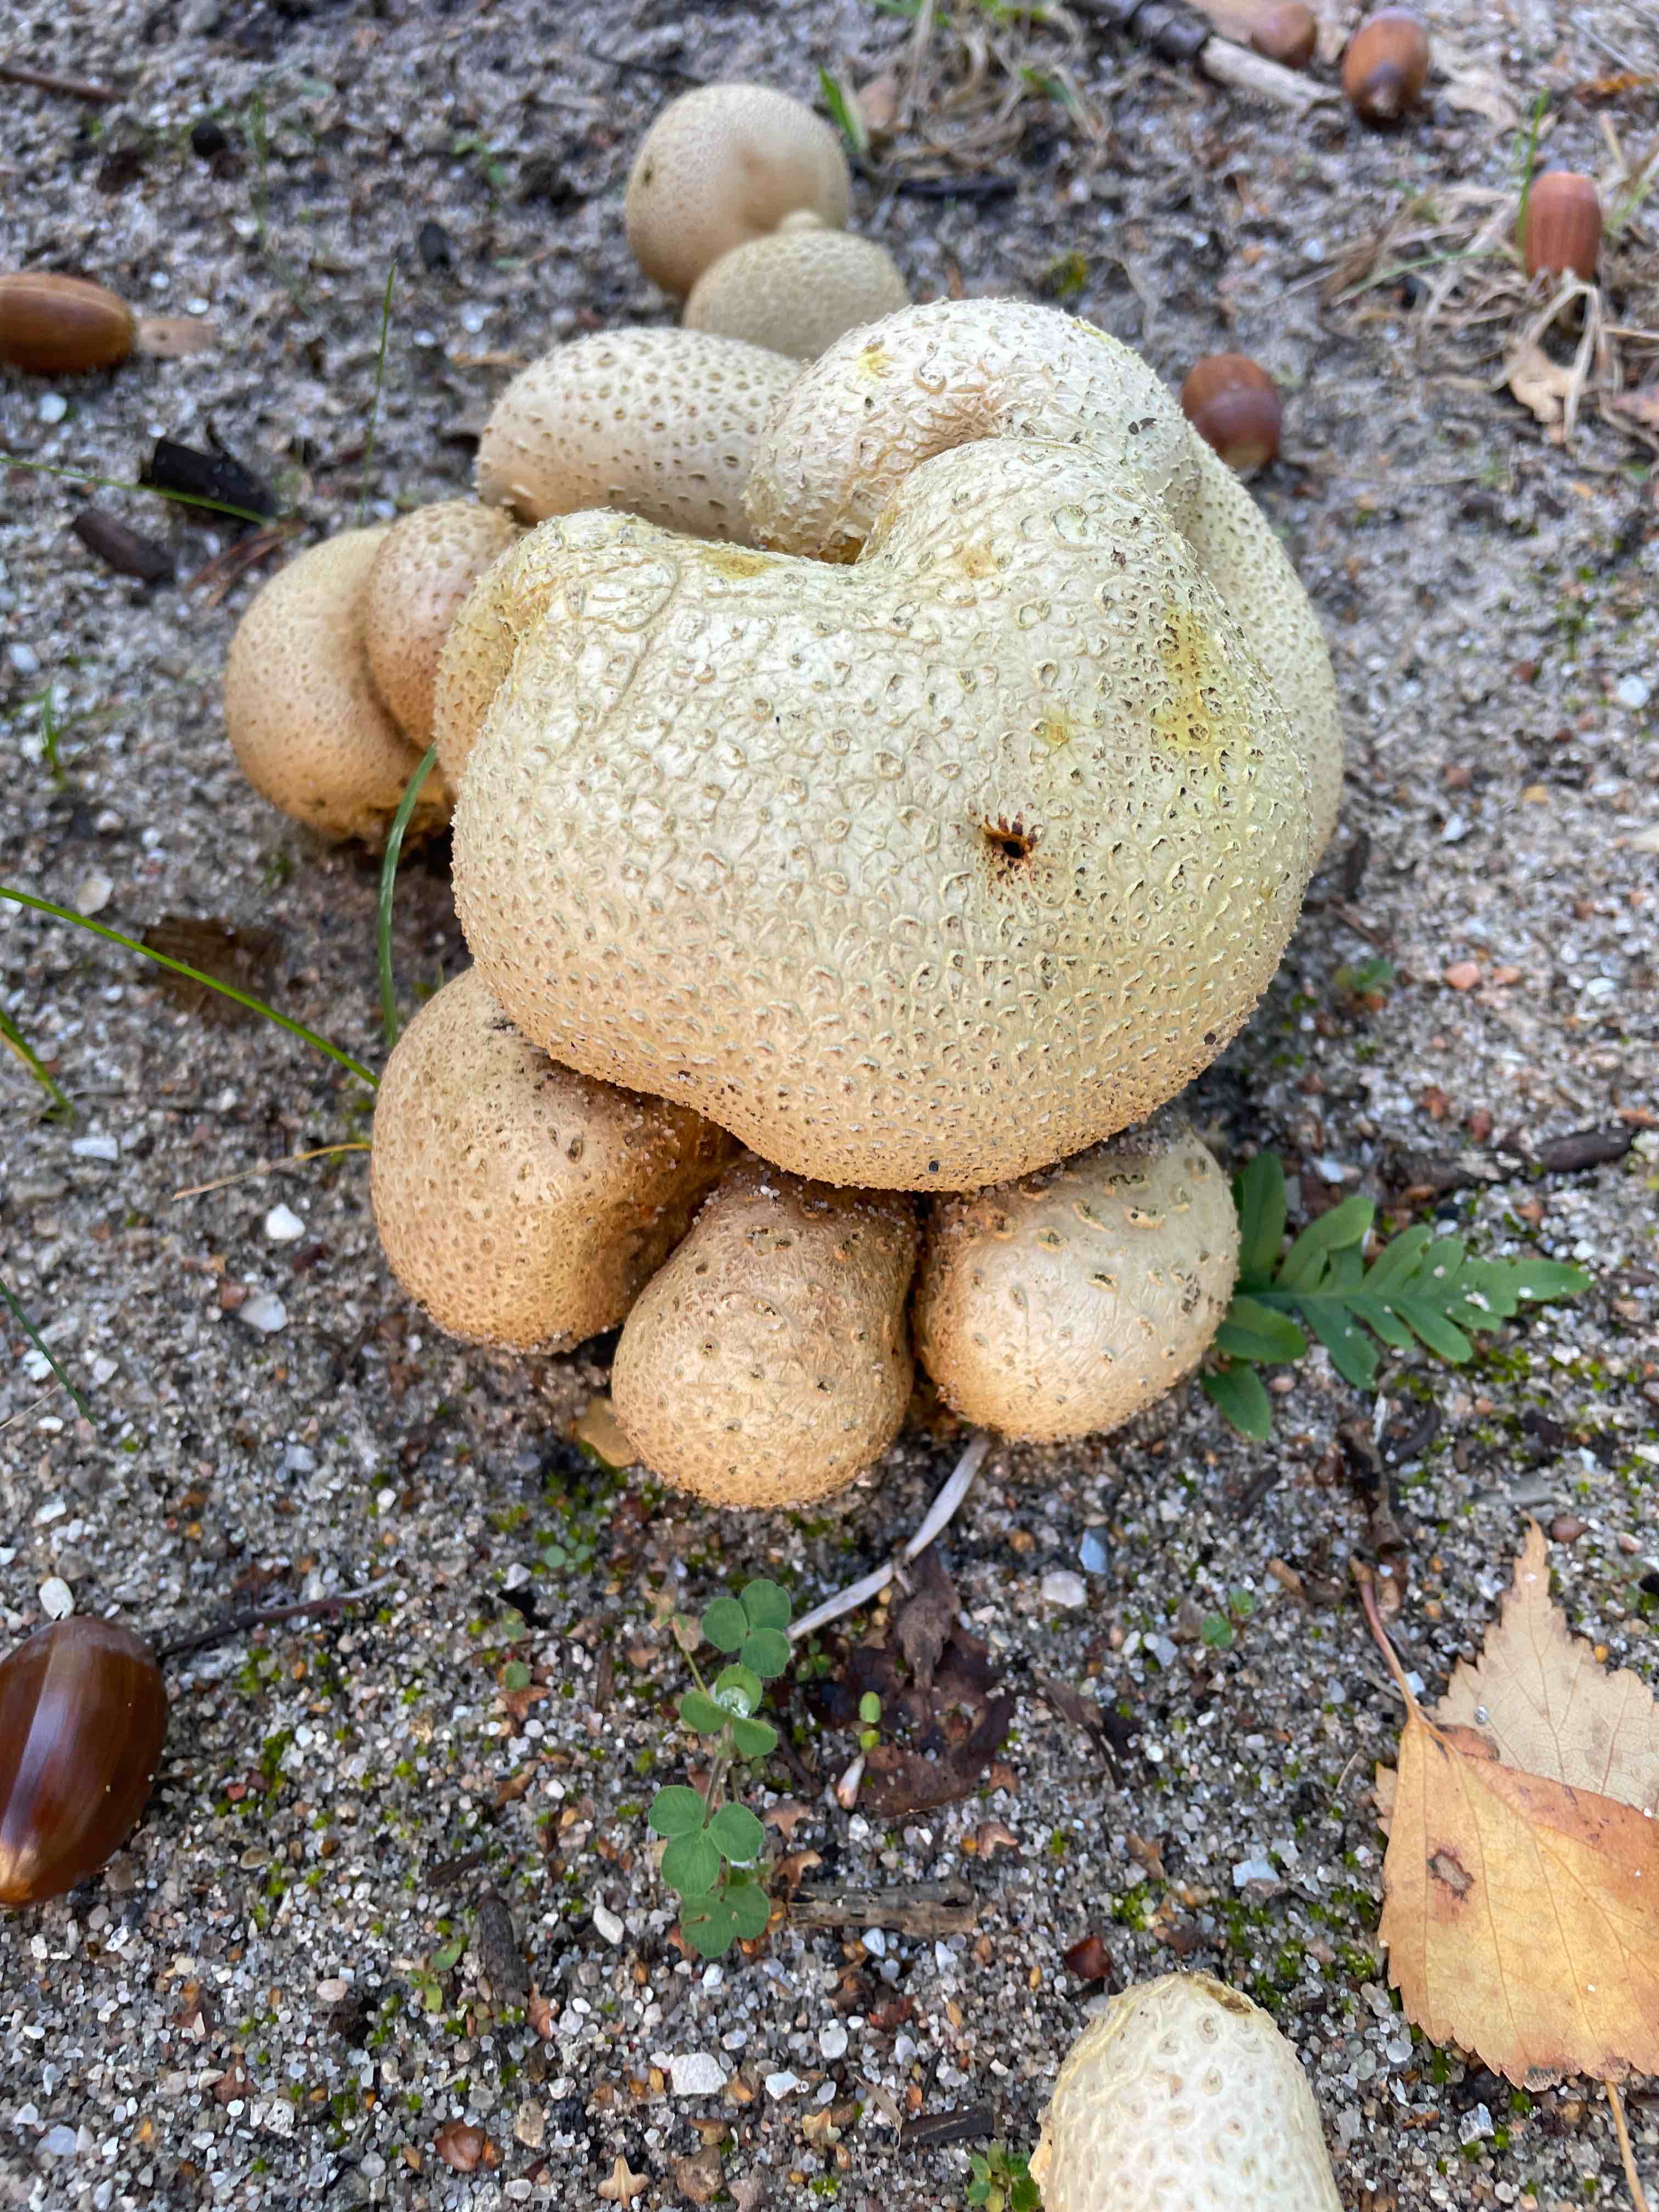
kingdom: Fungi
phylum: Basidiomycota
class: Agaricomycetes
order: Boletales
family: Sclerodermataceae
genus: Scleroderma
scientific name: Scleroderma citrinum
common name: almindelig bruskbold
